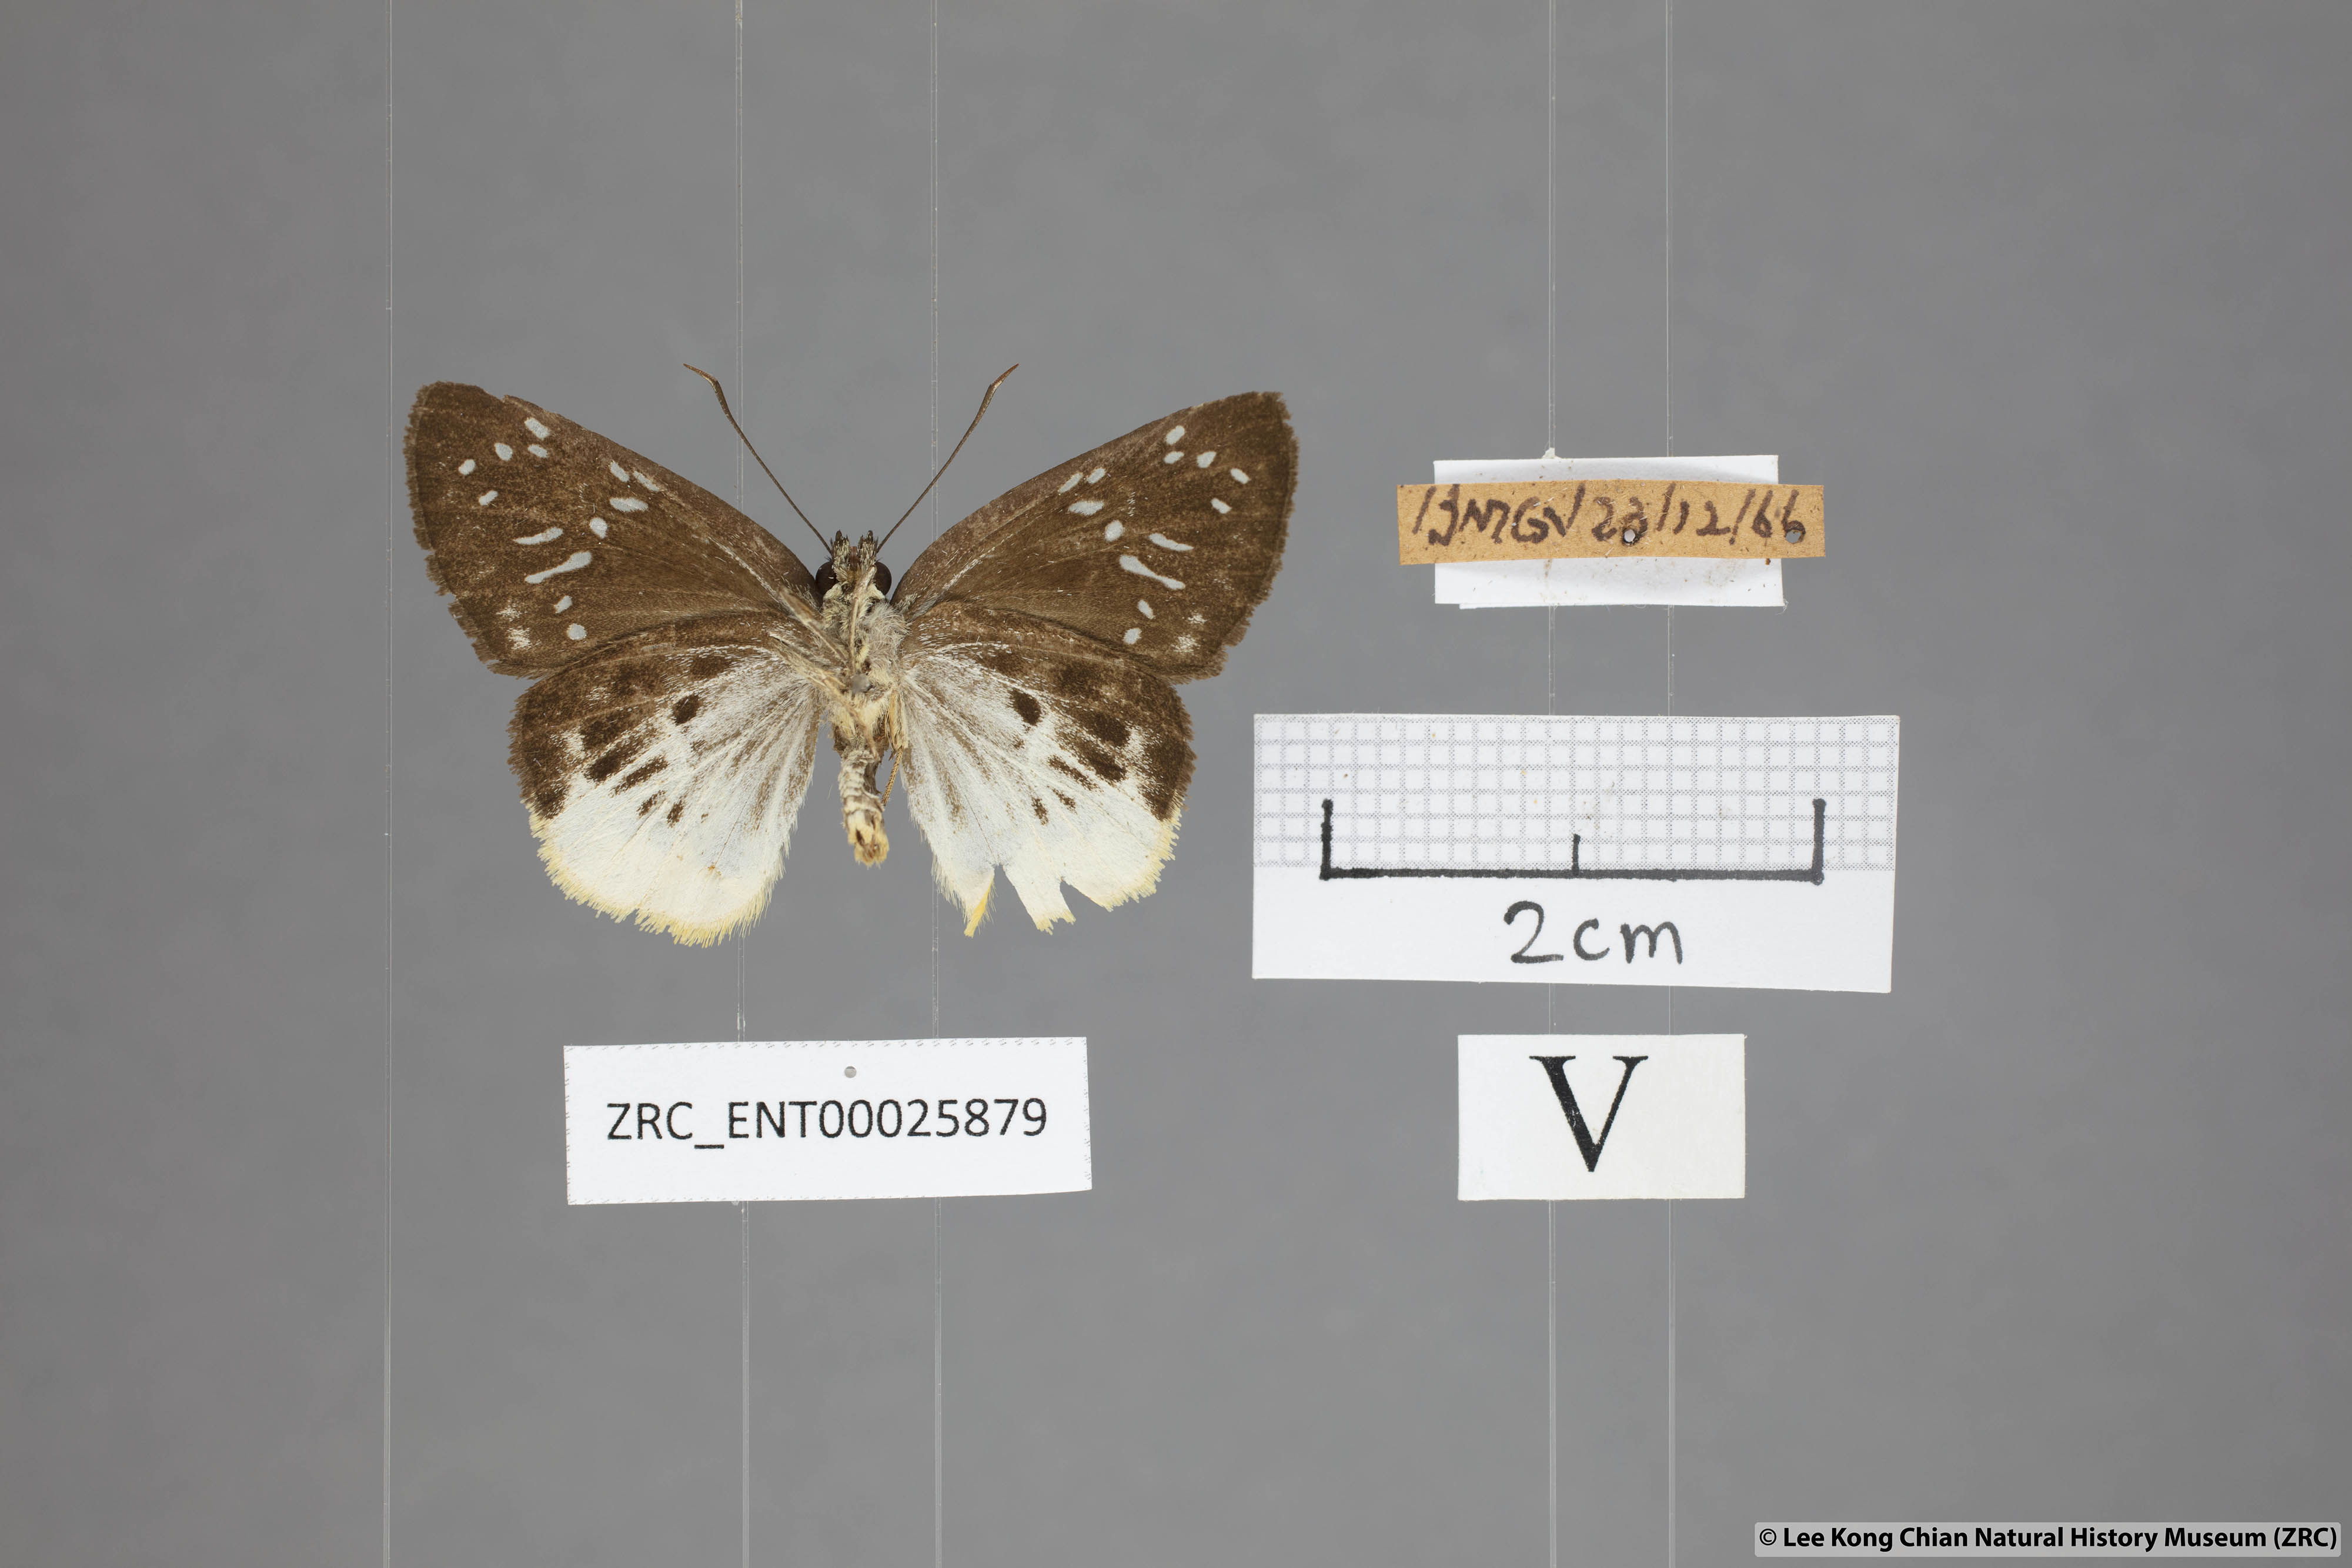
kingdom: Animalia
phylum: Arthropoda
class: Insecta
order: Lepidoptera
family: Hesperiidae
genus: Mooreana
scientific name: Mooreana trichoneura
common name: Yellow flat
